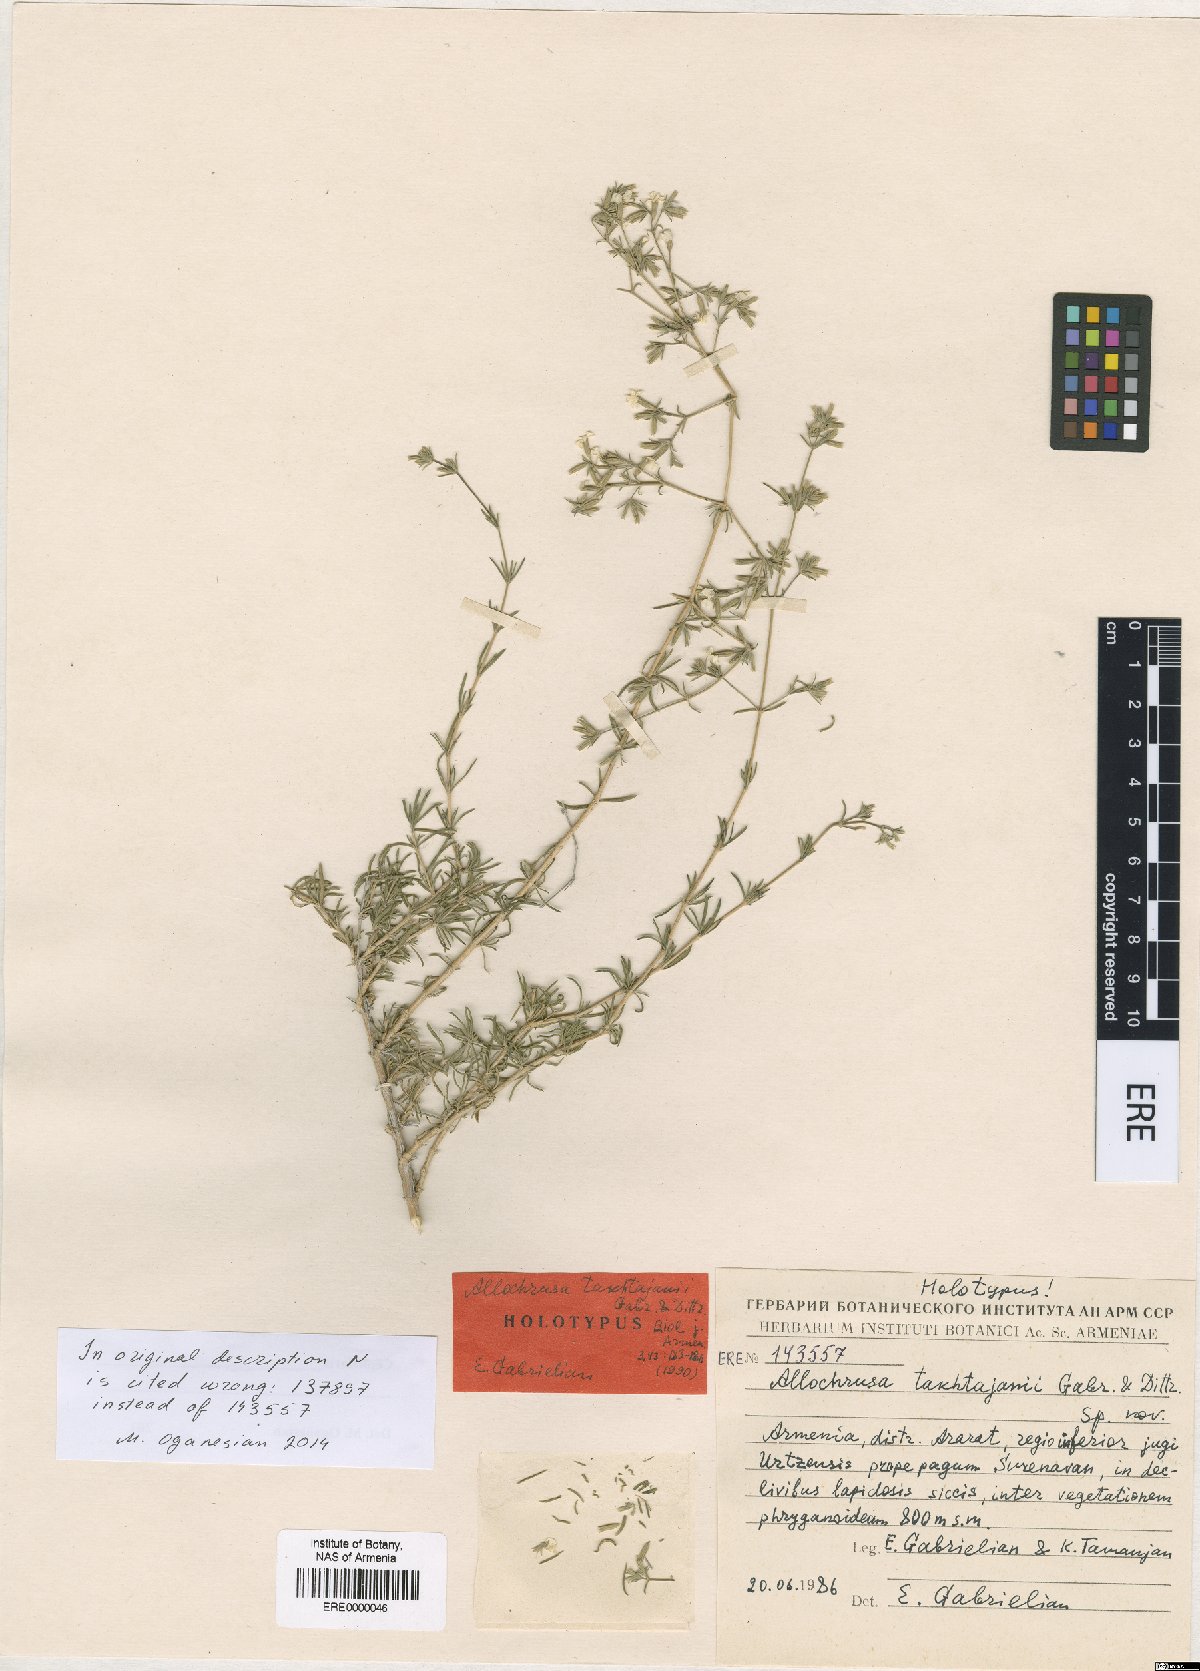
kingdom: Plantae
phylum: Tracheophyta
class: Magnoliopsida
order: Caryophyllales
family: Caryophyllaceae
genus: Acanthophyllum
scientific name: Acanthophyllum takhtajanii
